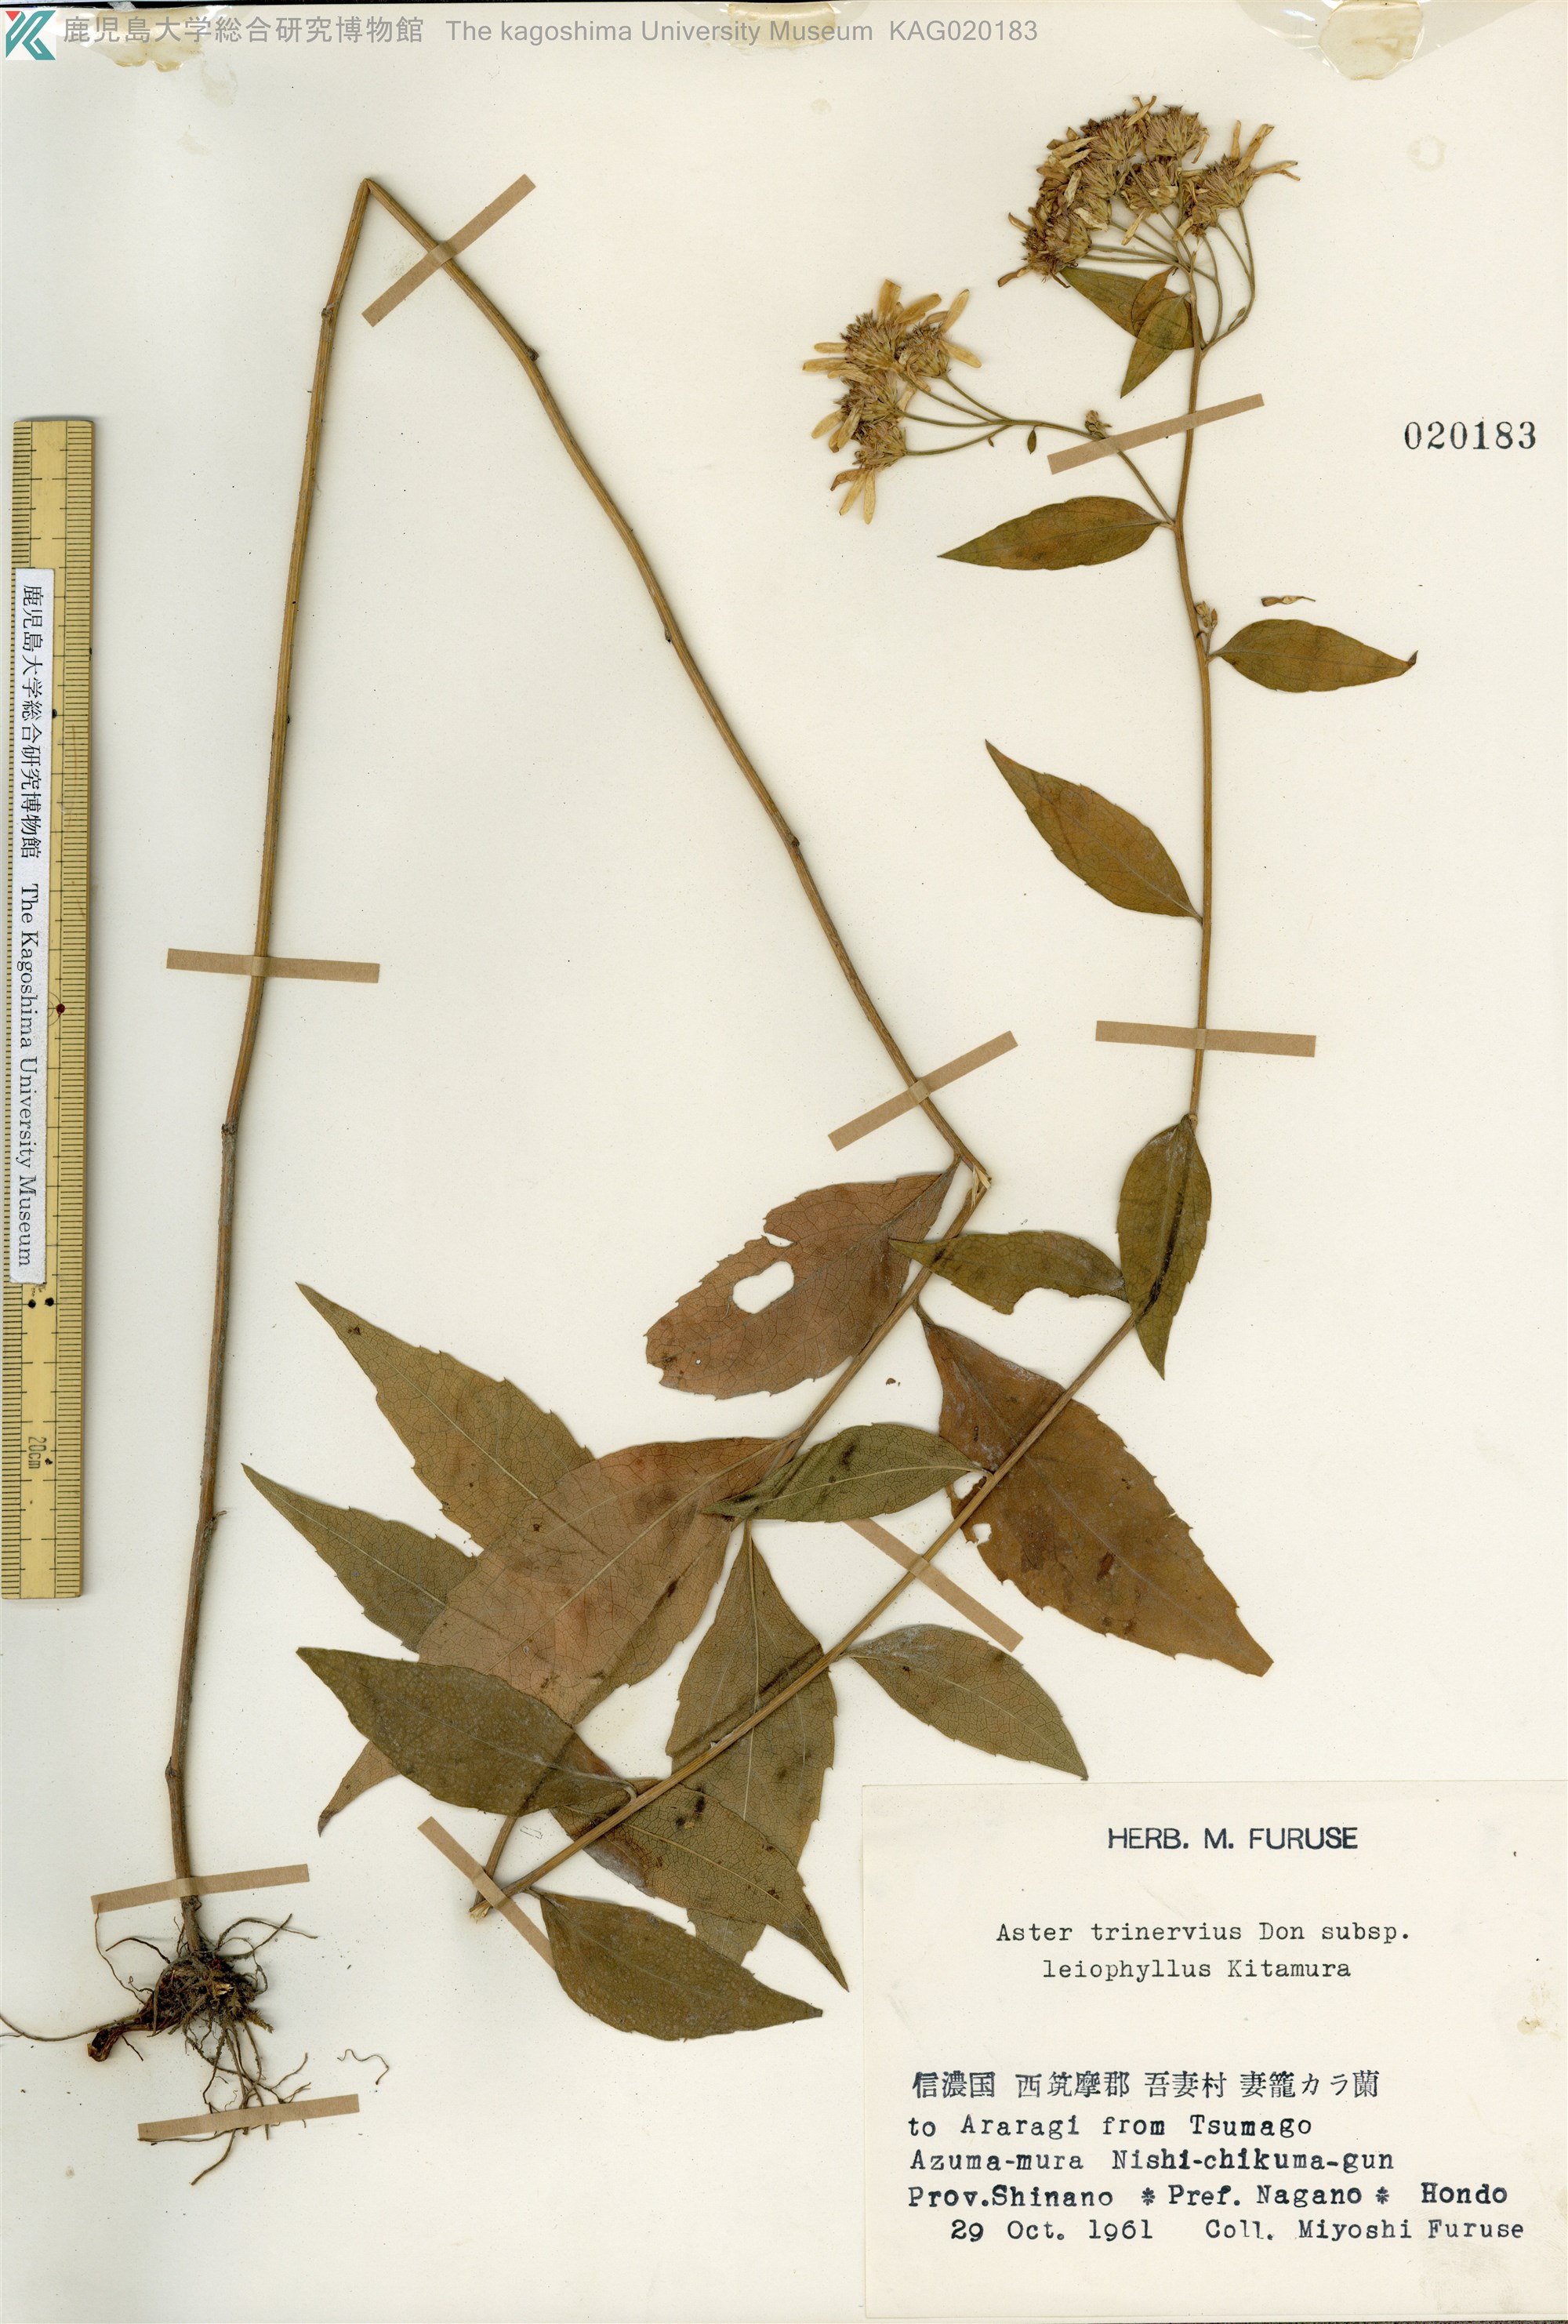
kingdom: Plantae
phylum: Tracheophyta
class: Magnoliopsida
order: Asterales
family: Asteraceae
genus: Aster
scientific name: Aster ageratoides
